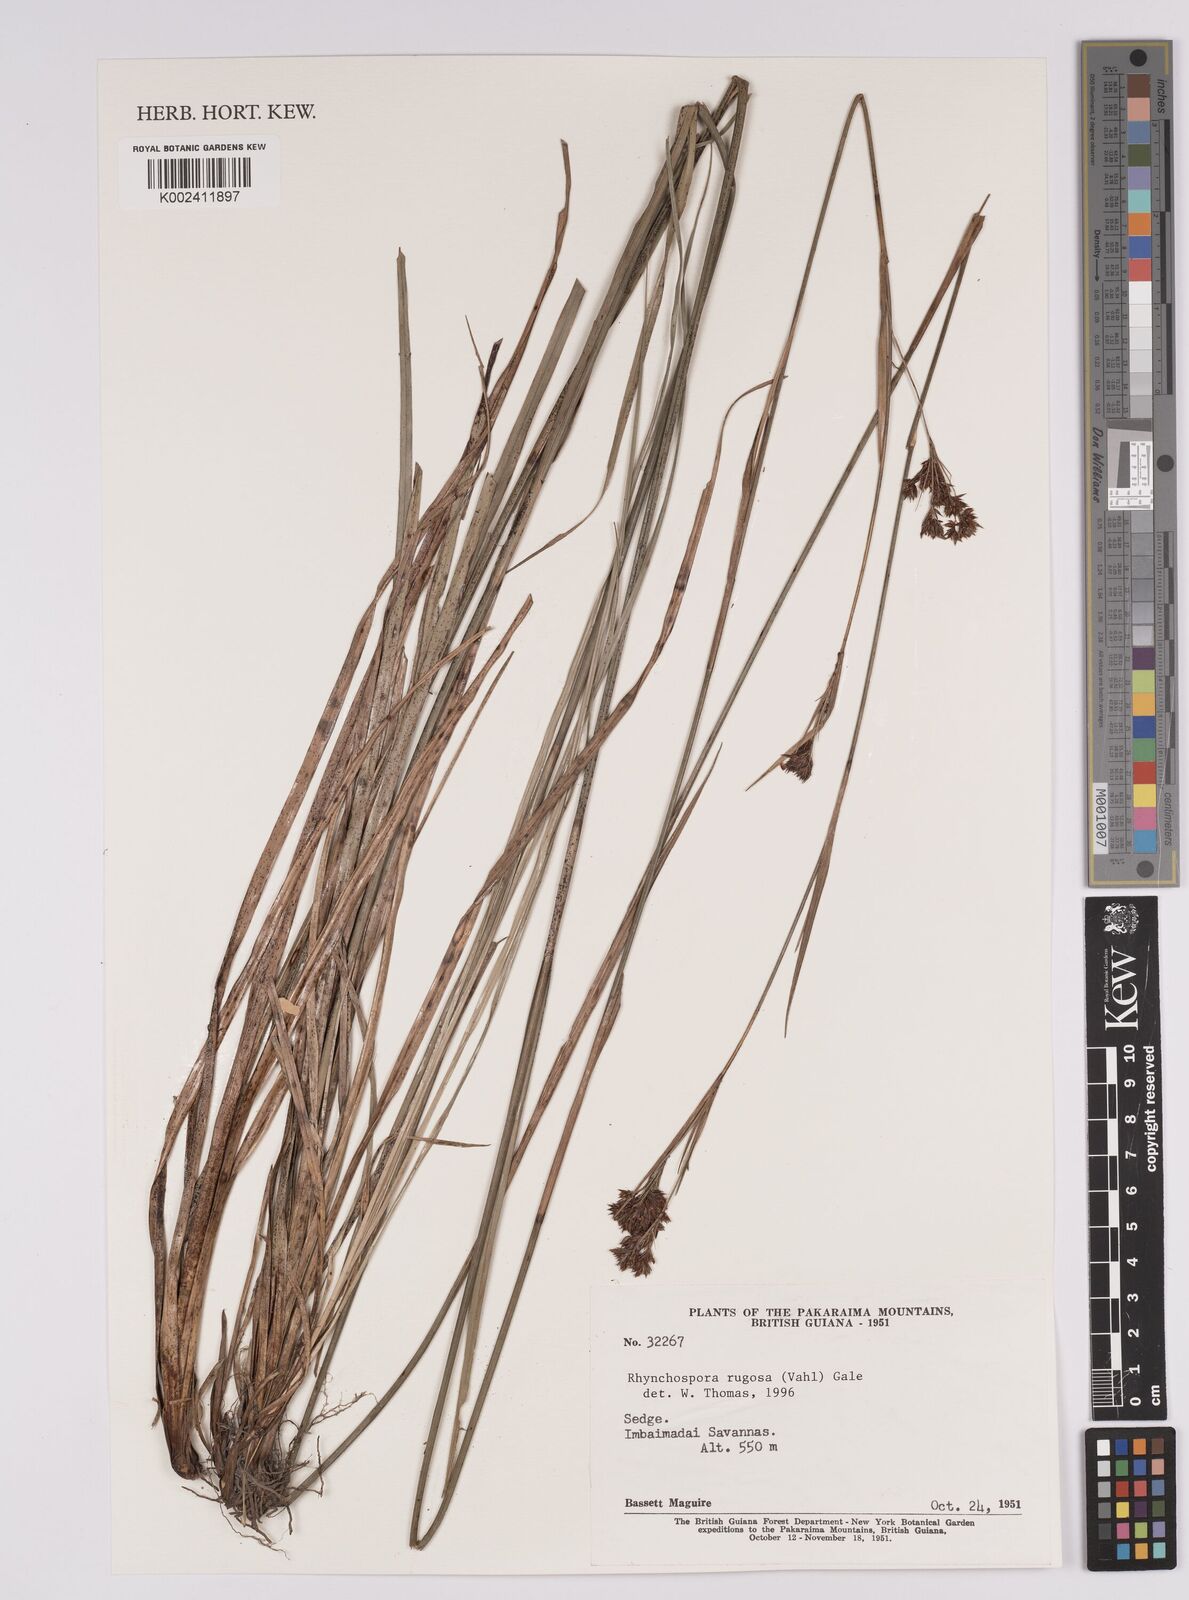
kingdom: Plantae
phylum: Tracheophyta
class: Liliopsida
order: Poales
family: Cyperaceae
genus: Rhynchospora
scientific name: Rhynchospora rugosa
